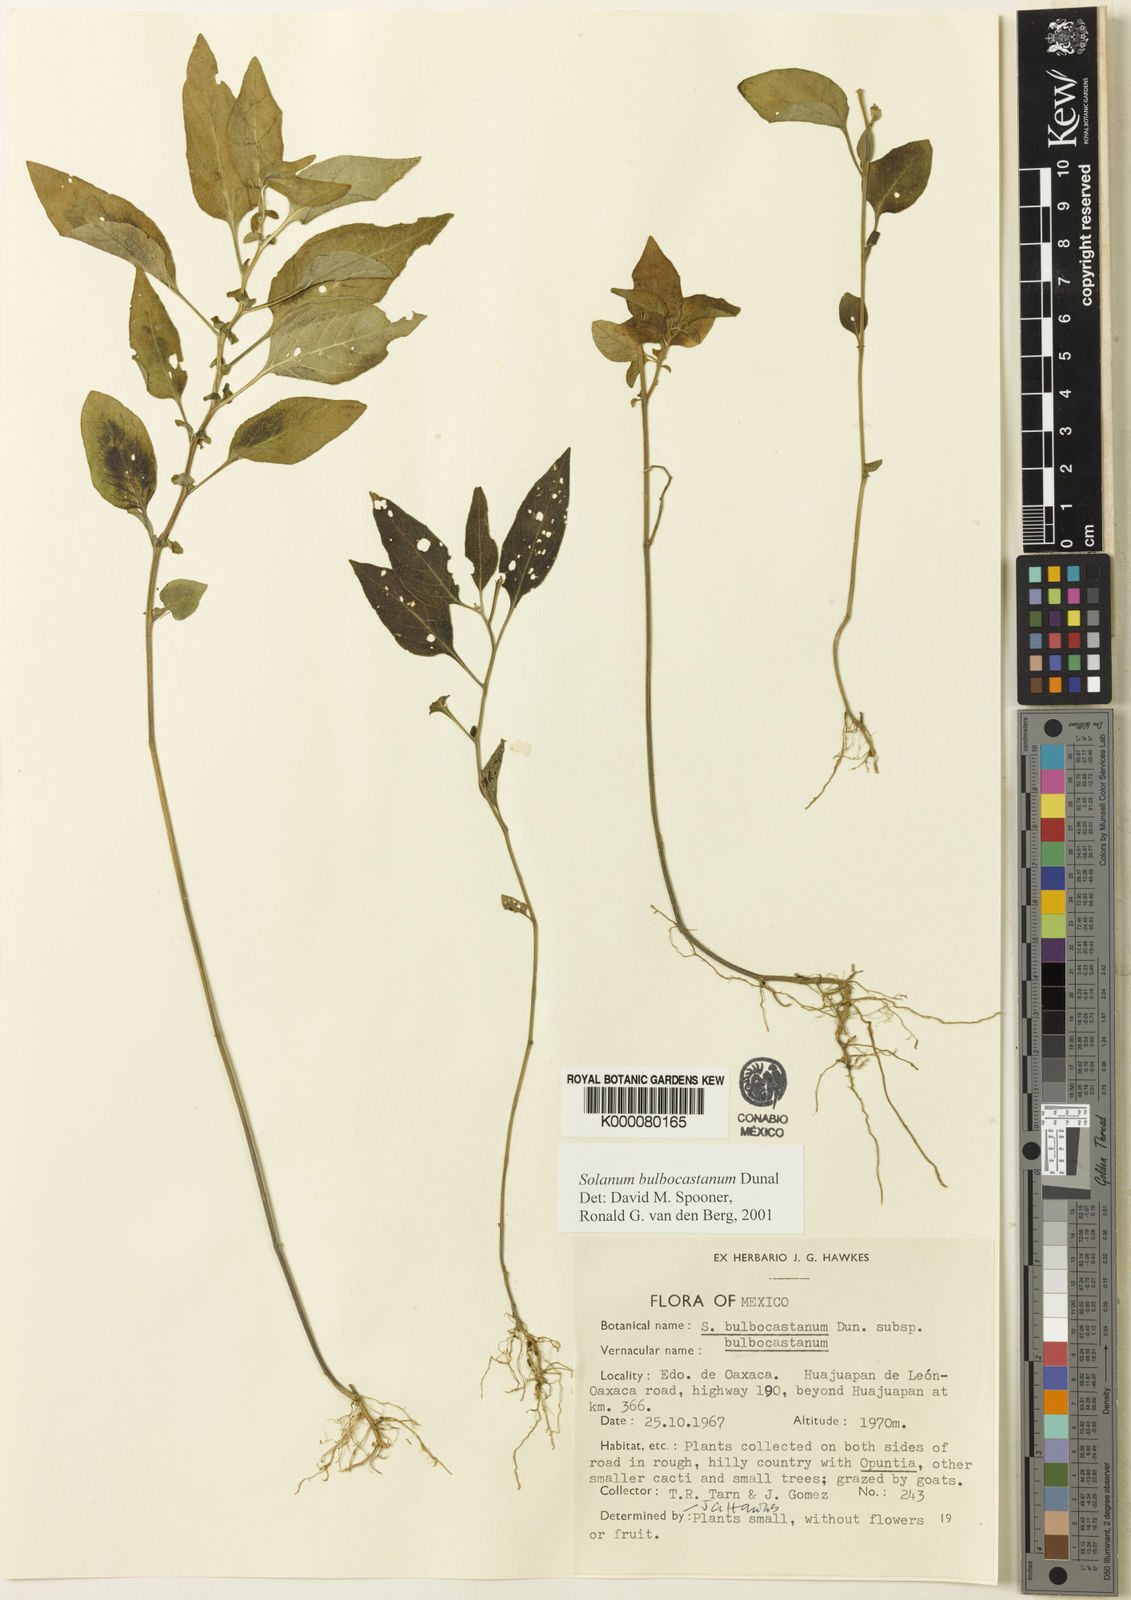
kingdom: Plantae
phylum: Tracheophyta
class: Magnoliopsida
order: Solanales
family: Solanaceae
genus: Solanum
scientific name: Solanum bulbocastanum
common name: Ornamental nightshade
